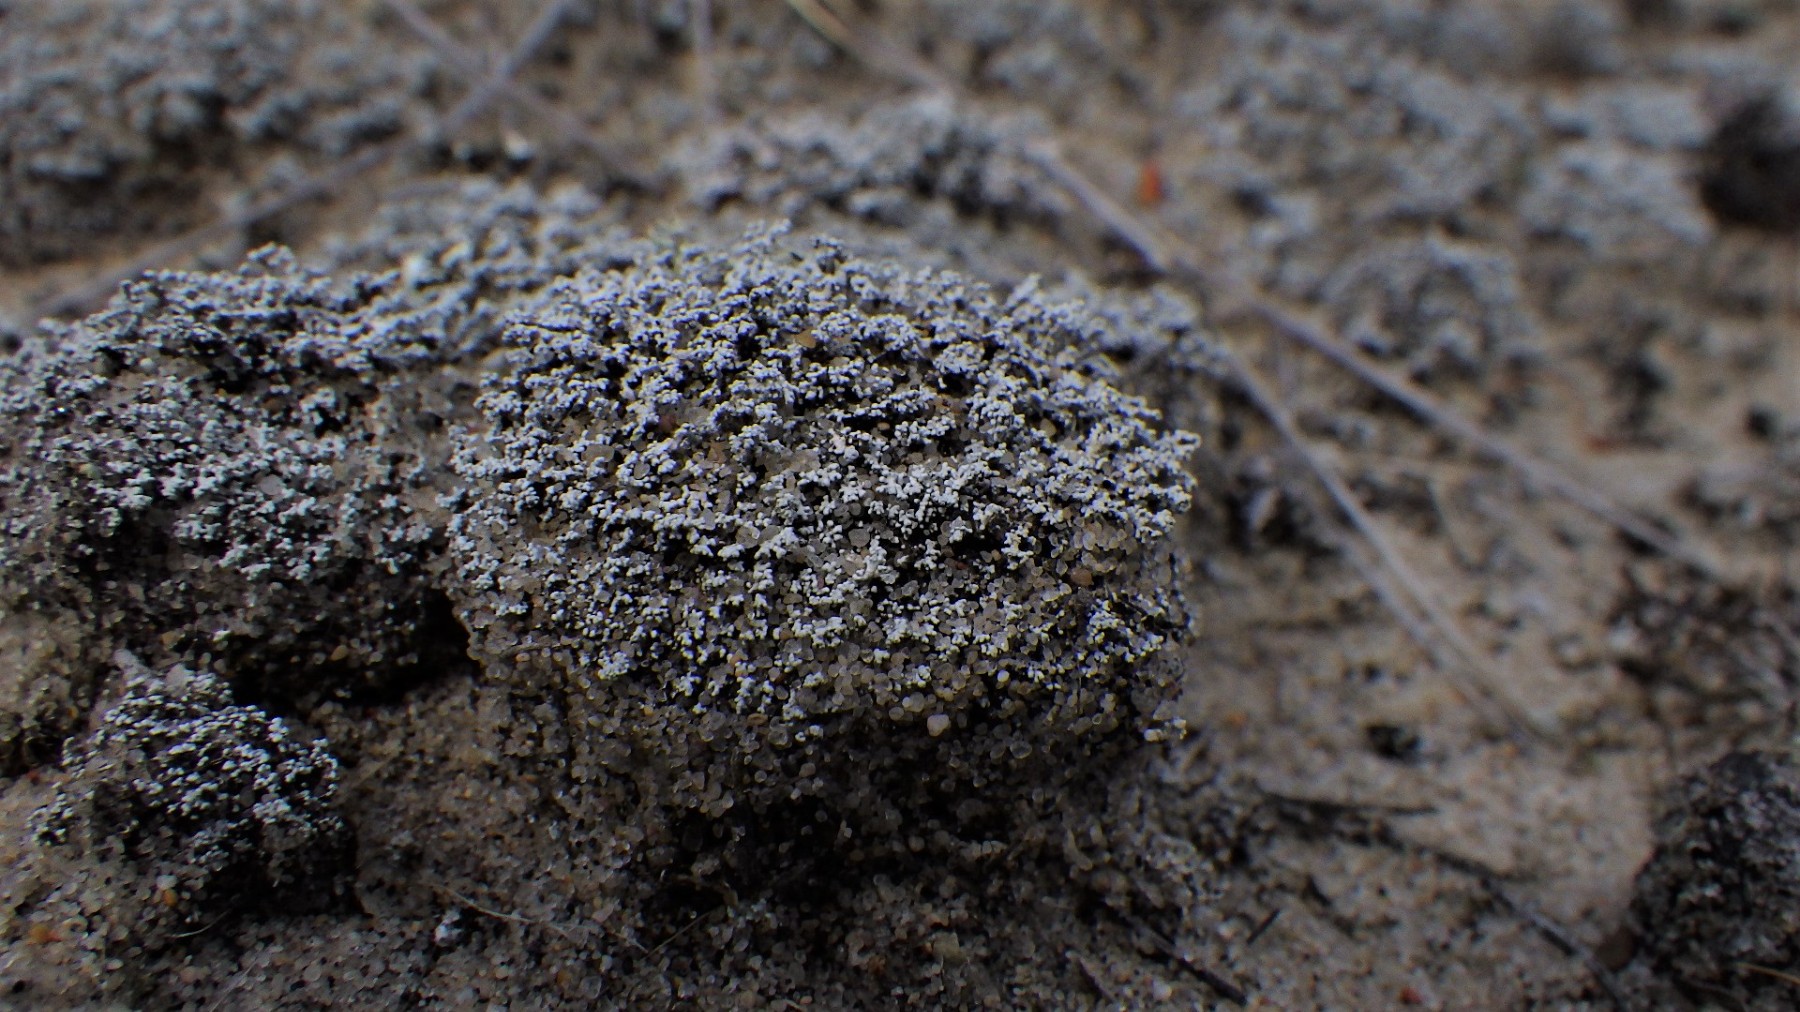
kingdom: Fungi
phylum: Ascomycota
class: Lecanoromycetes
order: Lecanorales
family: Stereocaulaceae
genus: Stereocaulon
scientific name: Stereocaulon condensatum
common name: lav korallav
